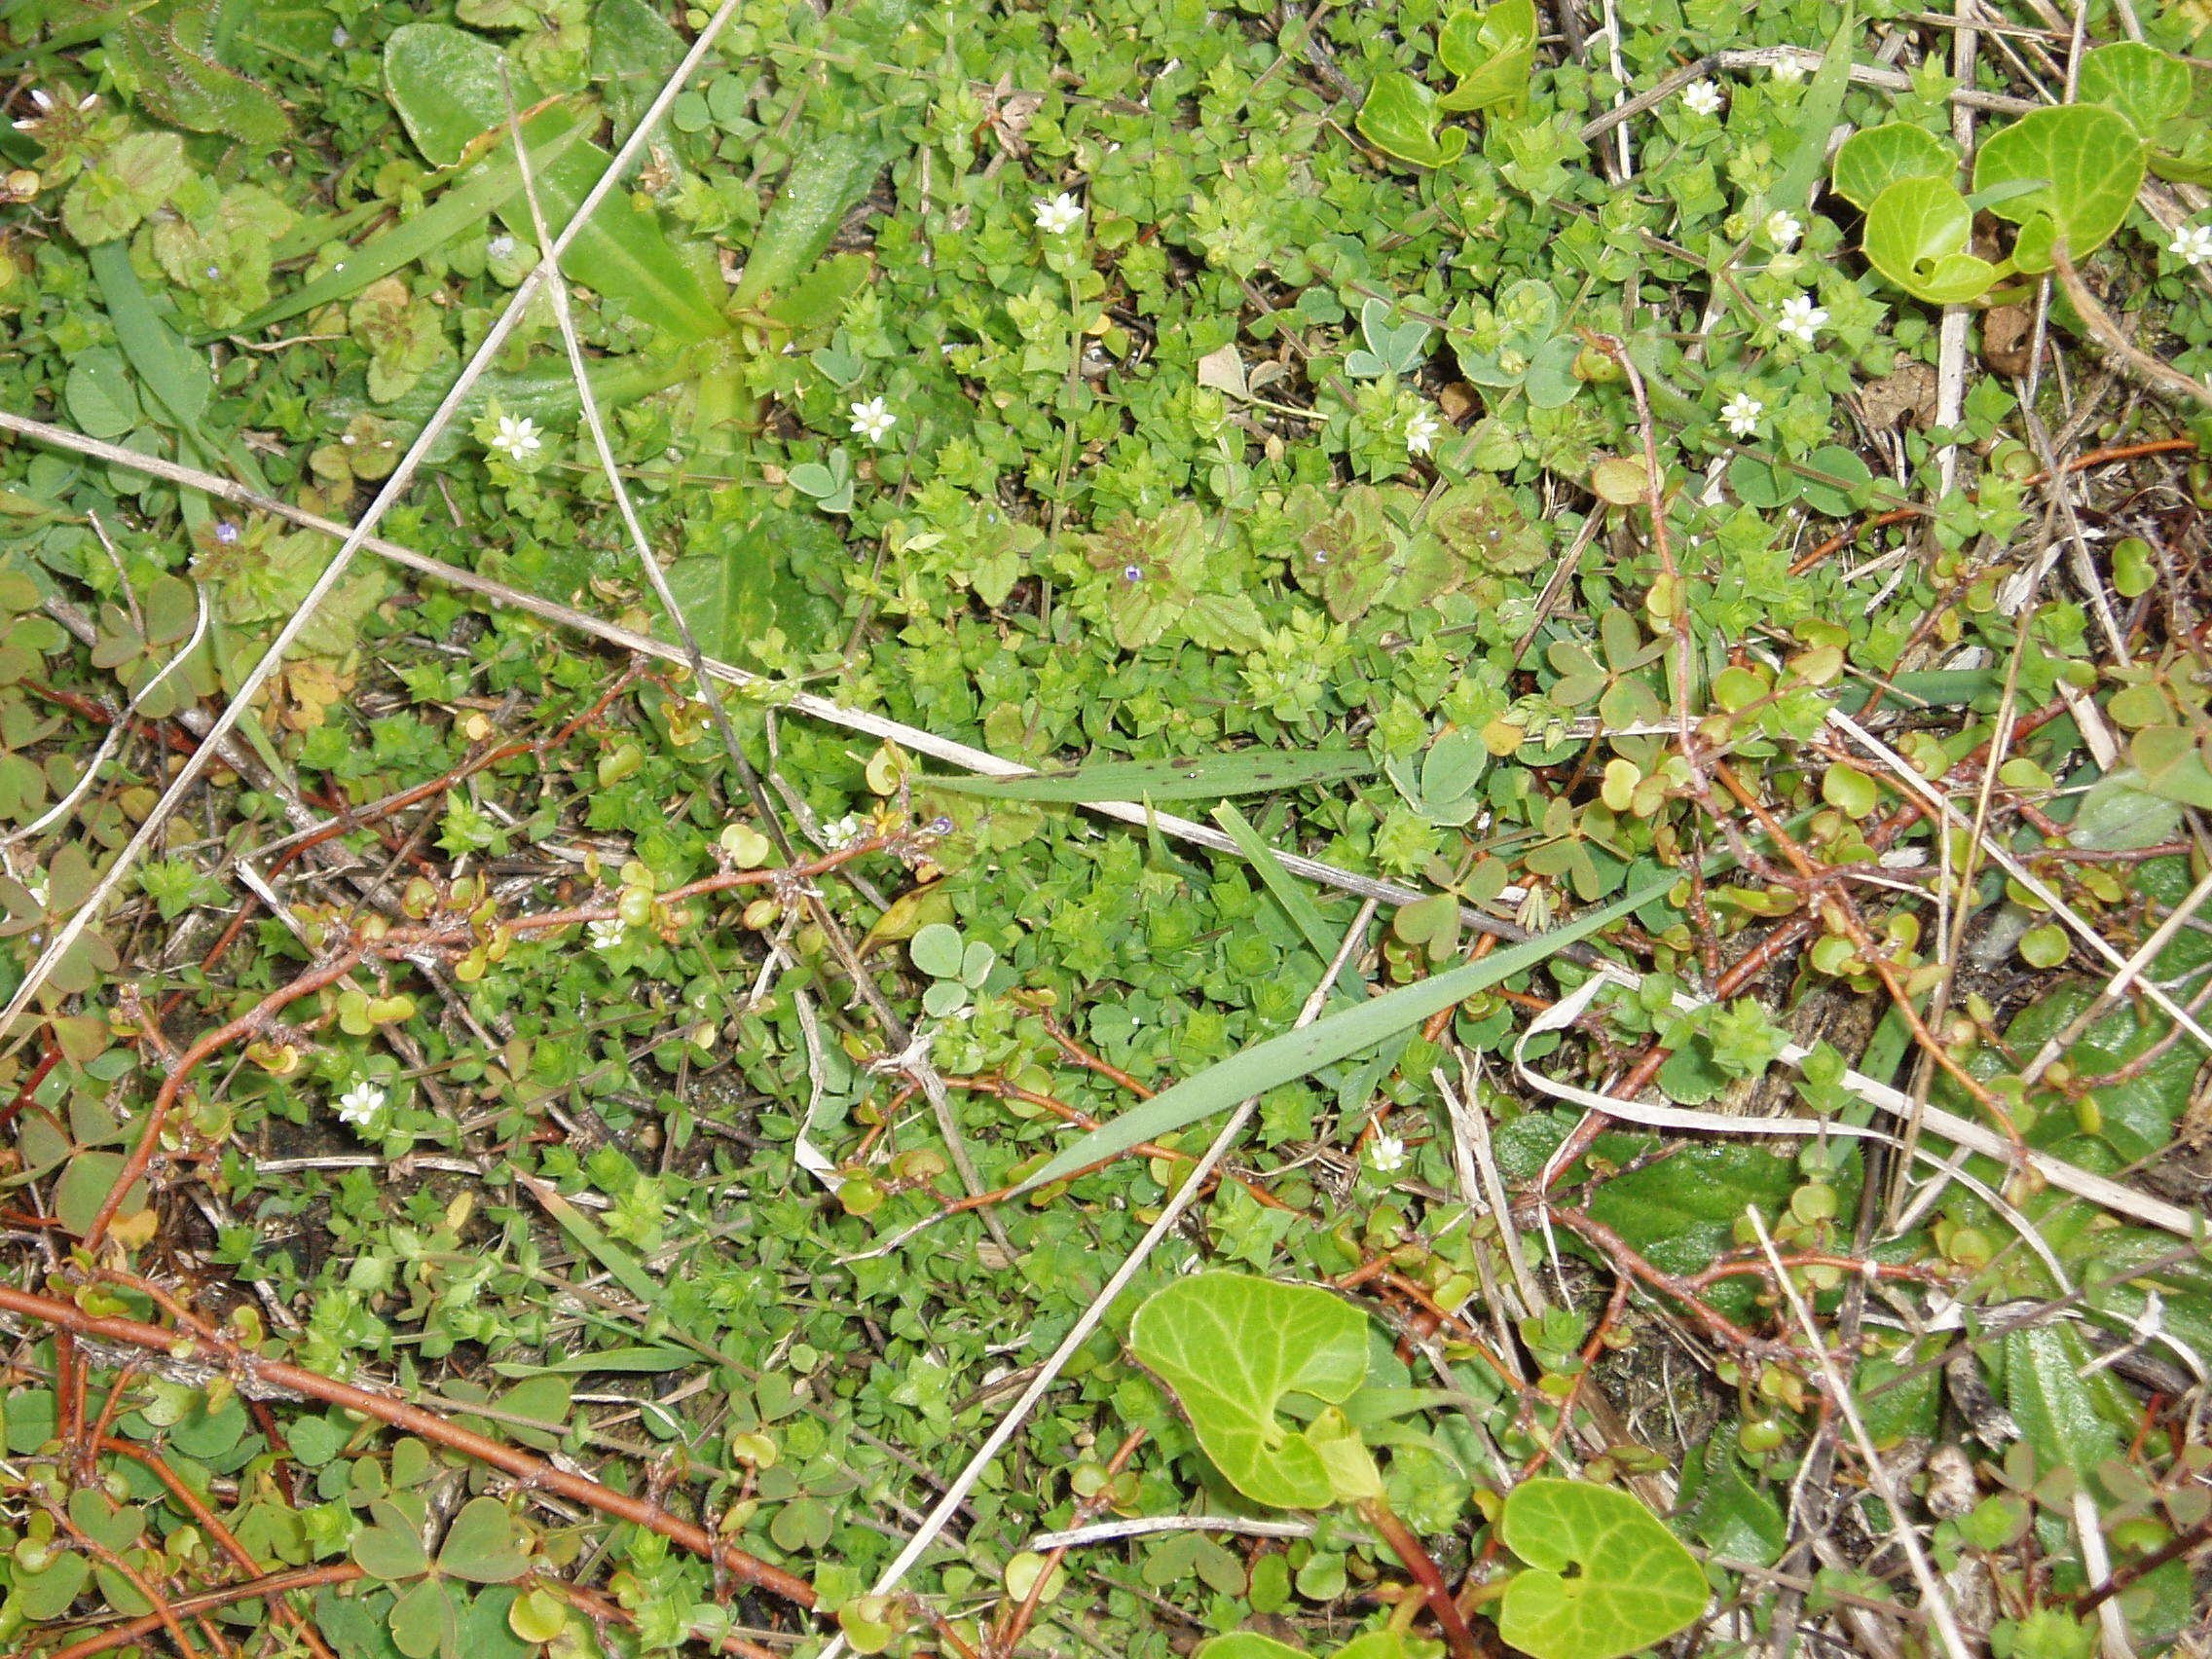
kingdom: Plantae
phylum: Tracheophyta
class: Magnoliopsida
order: Caryophyllales
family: Caryophyllaceae
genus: Arenaria
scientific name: Arenaria serpyllifolia
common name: Thyme-leaved sandwort
